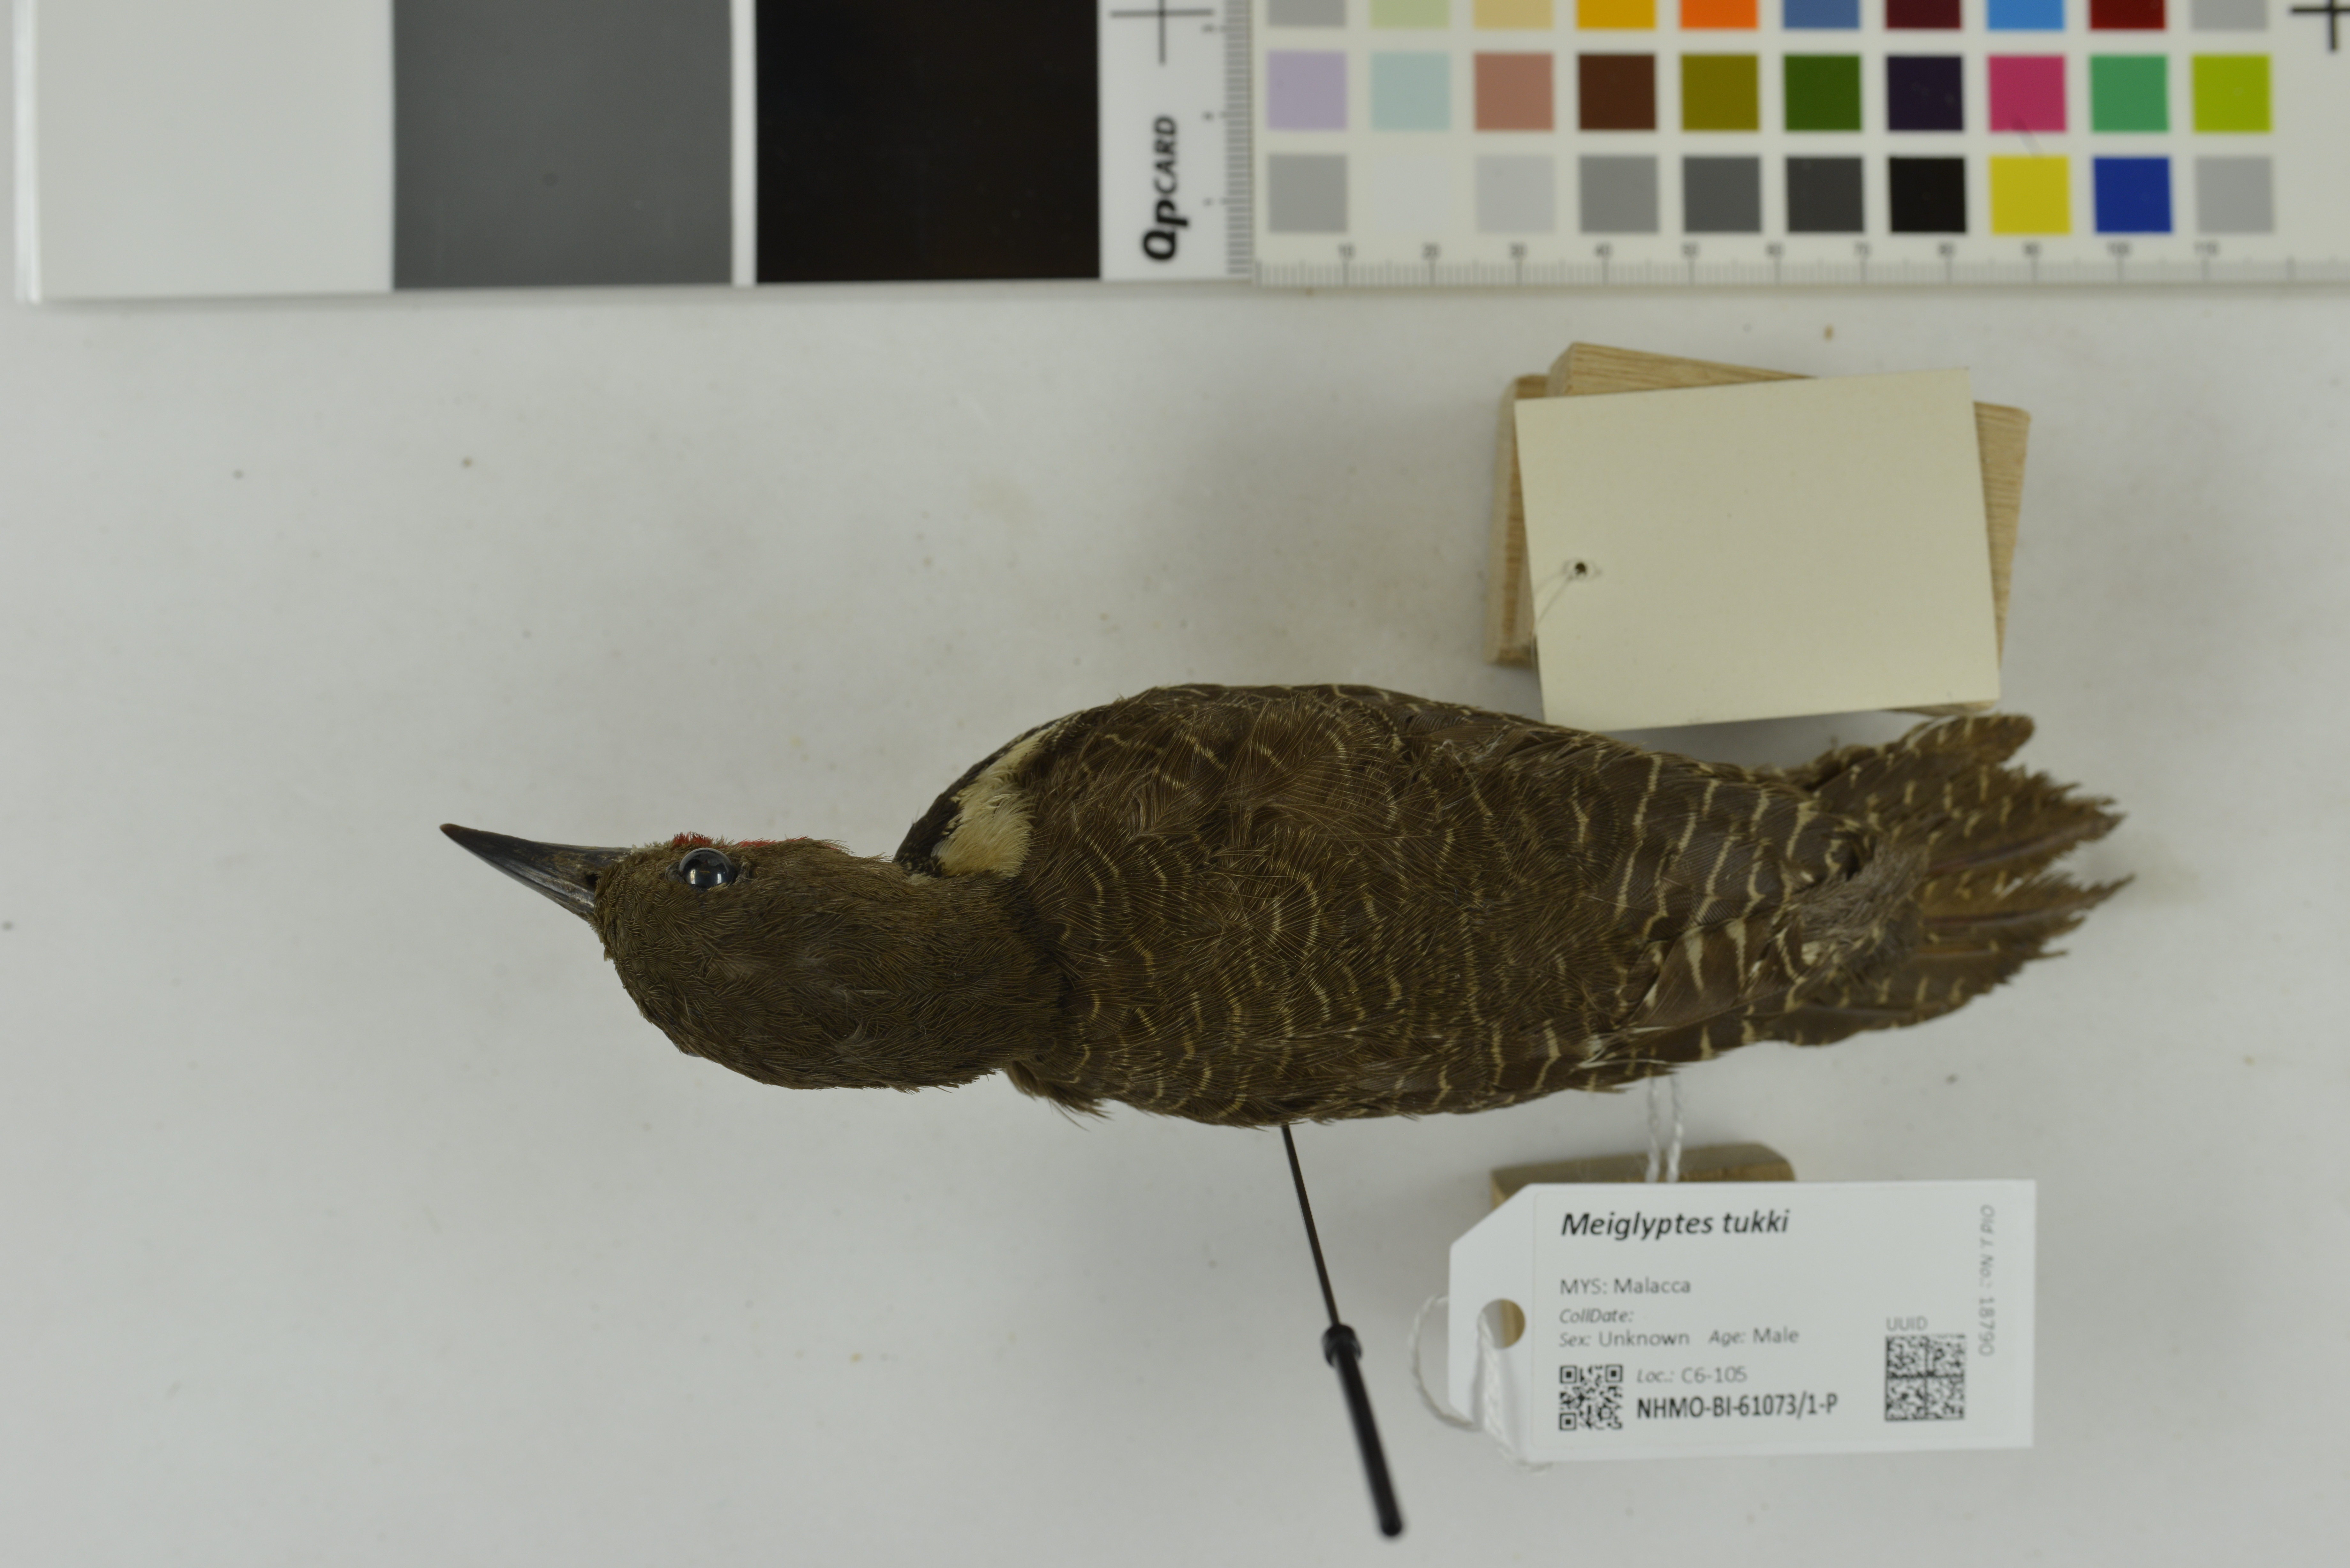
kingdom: Animalia
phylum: Chordata
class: Aves
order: Piciformes
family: Picidae
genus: Meiglyptes
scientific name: Meiglyptes tukki
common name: Buff-necked woodpecker
